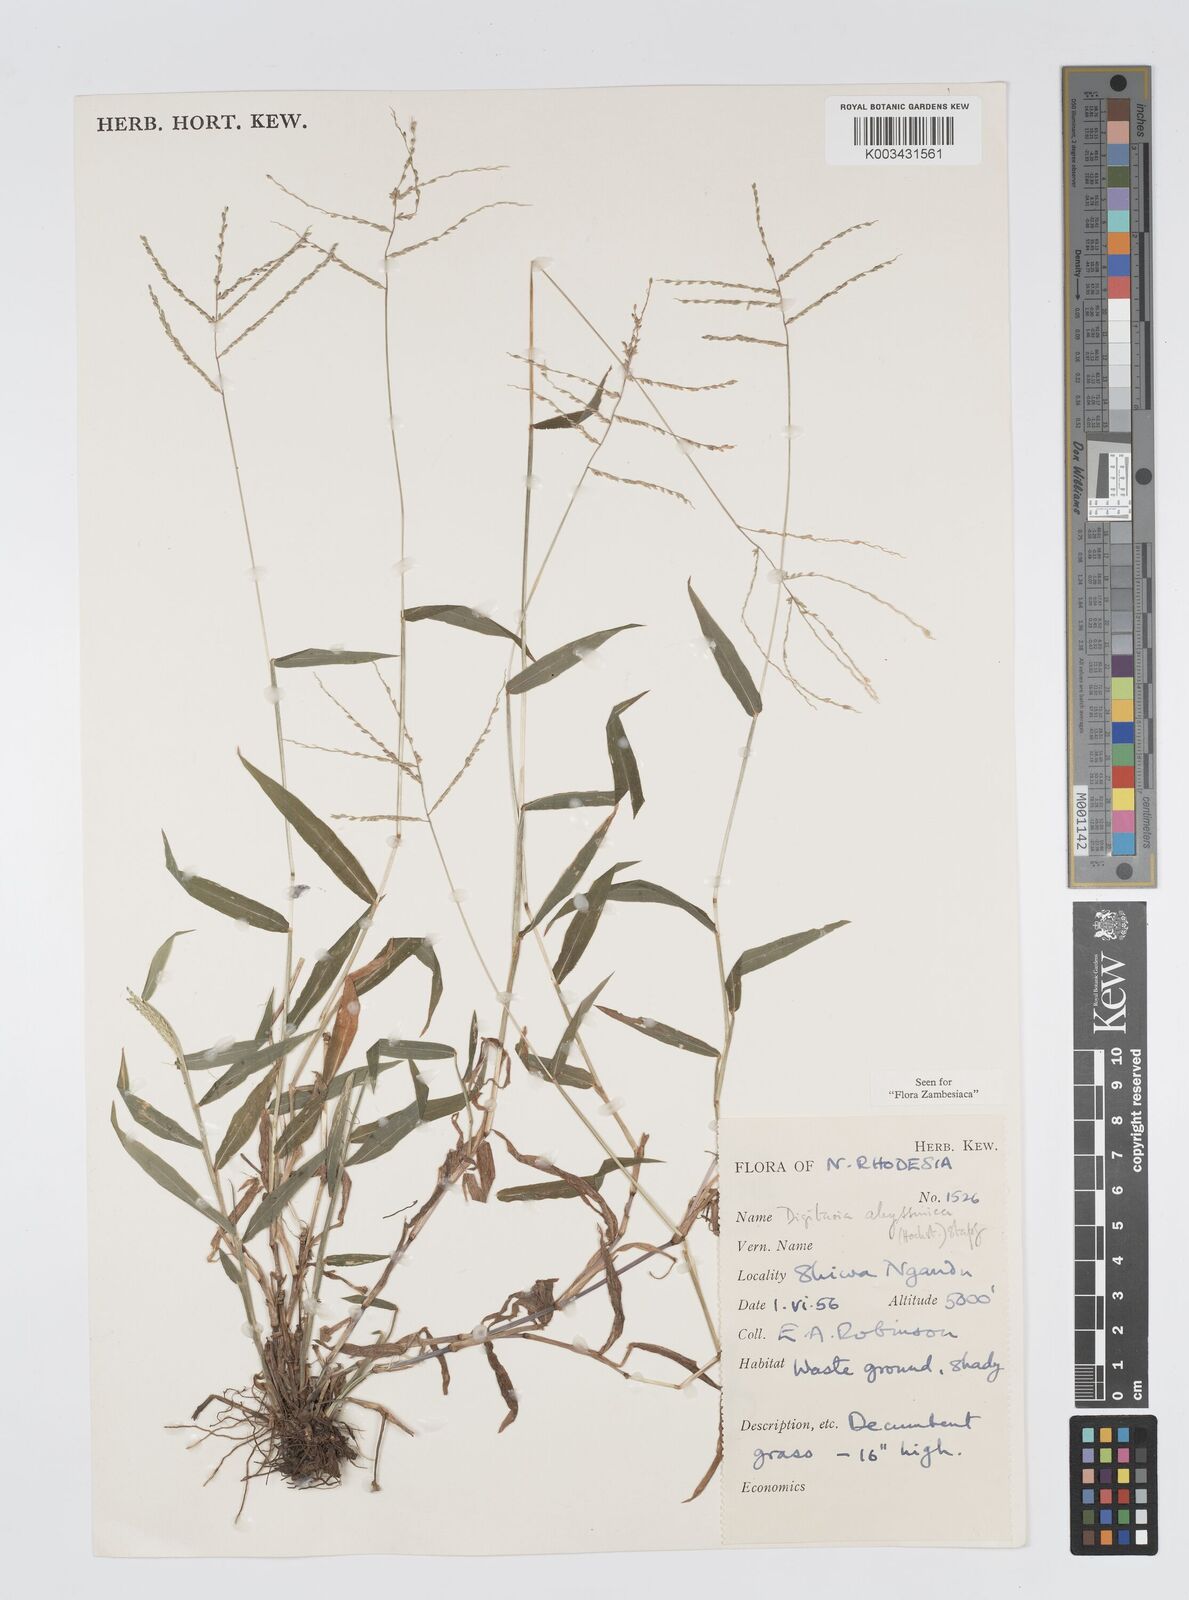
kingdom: Plantae
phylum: Tracheophyta
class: Liliopsida
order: Poales
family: Poaceae
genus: Digitaria
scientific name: Digitaria abyssinica
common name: African couchgrass
